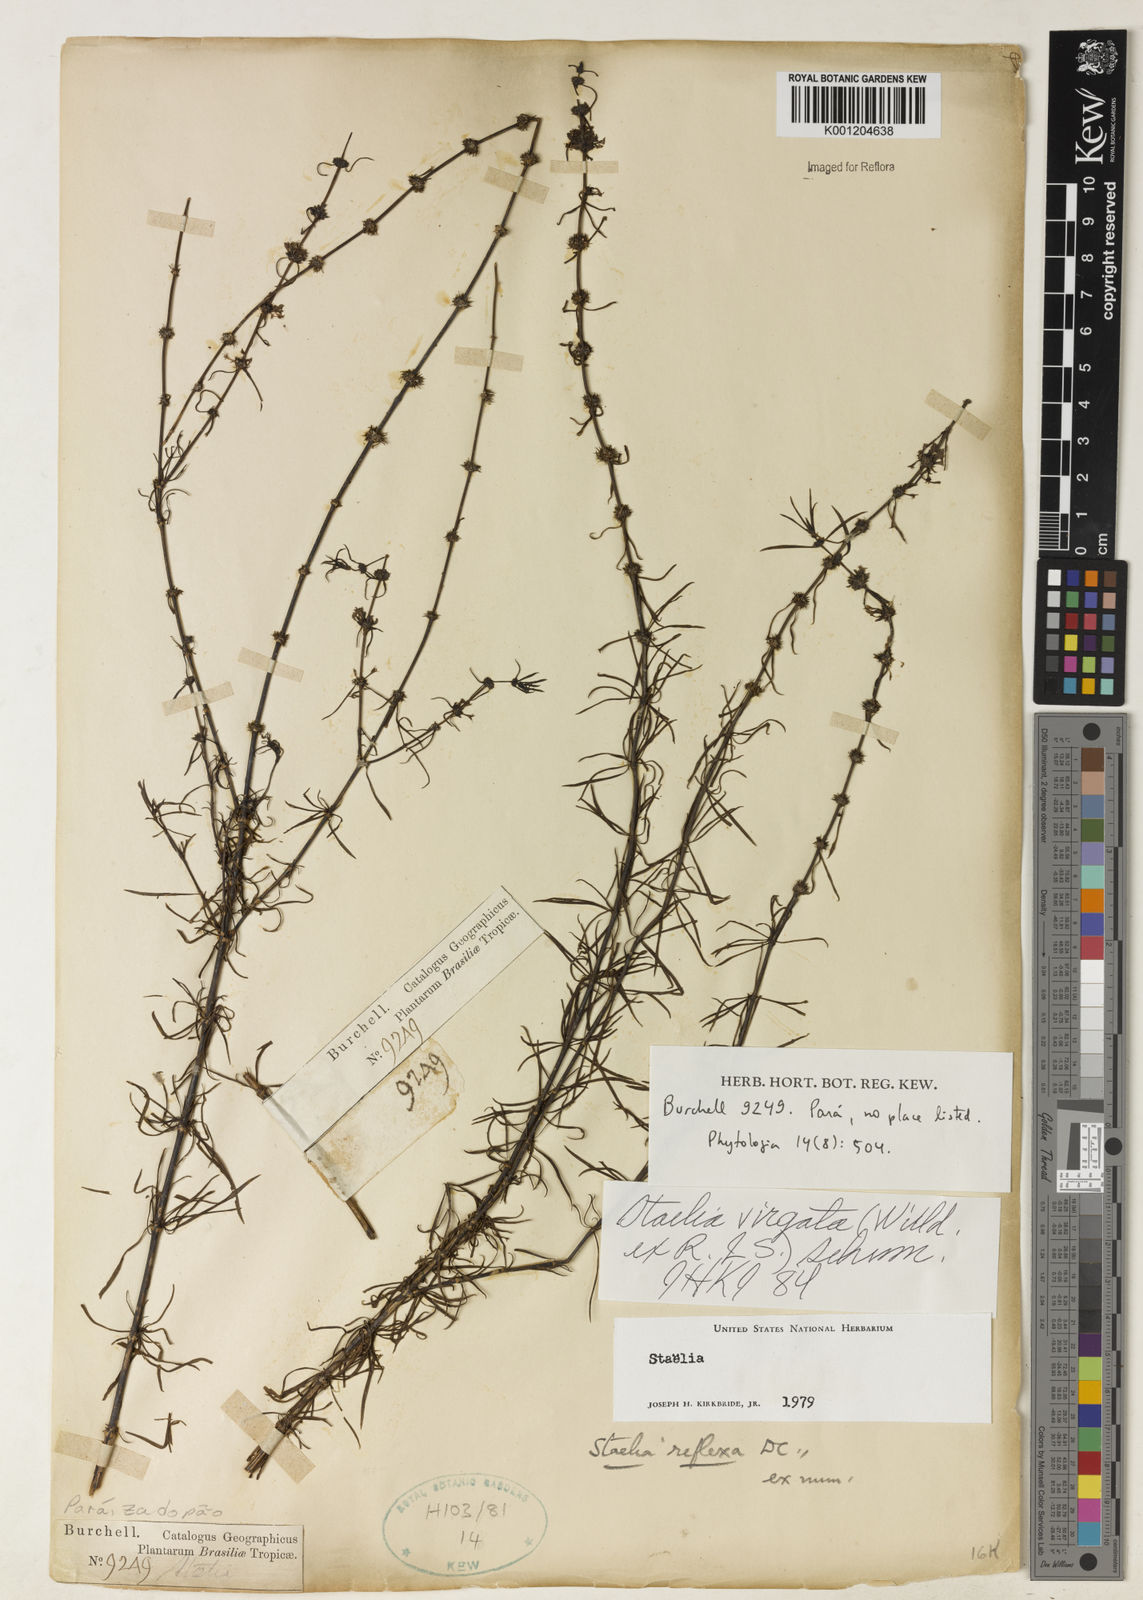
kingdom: Plantae
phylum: Tracheophyta
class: Magnoliopsida
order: Gentianales
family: Rubiaceae
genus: Staelia
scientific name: Staelia virgata
